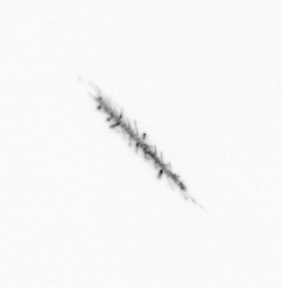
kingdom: Chromista
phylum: Ochrophyta
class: Bacillariophyceae
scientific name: Bacillariophyceae
